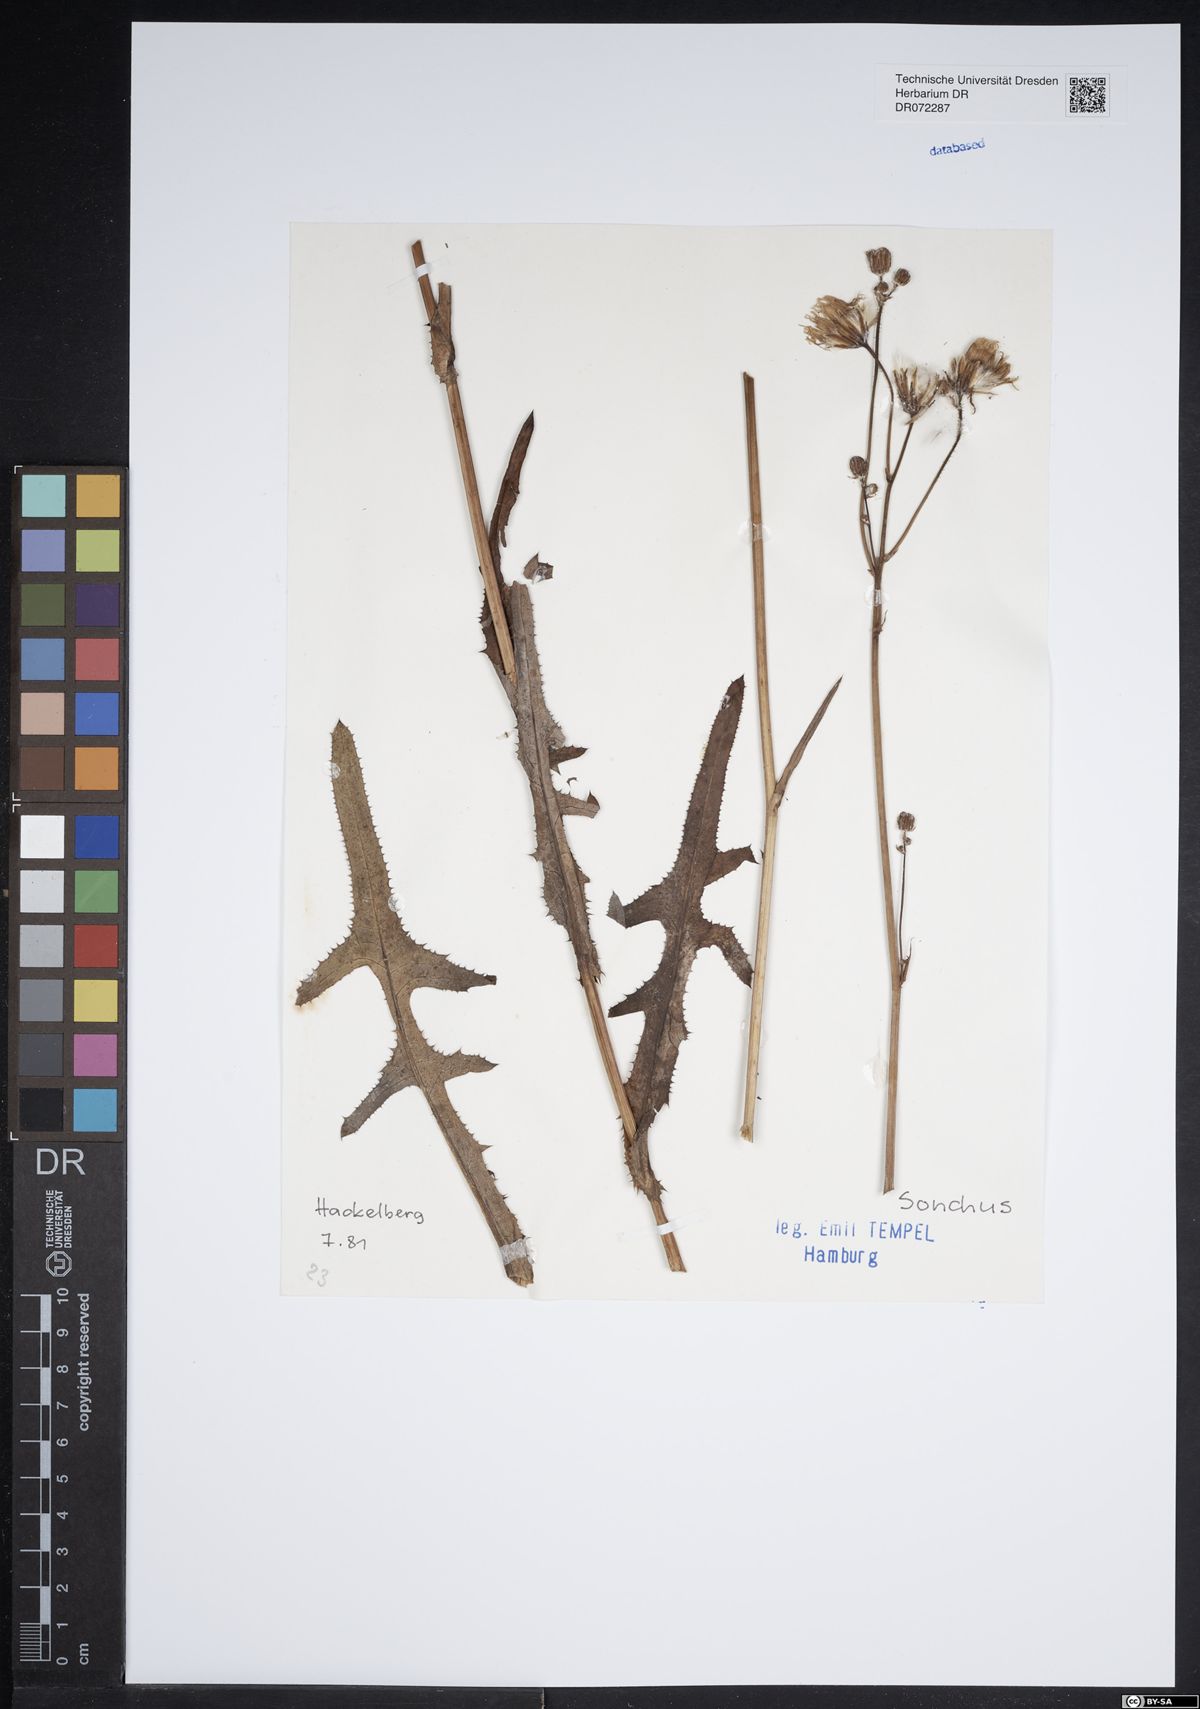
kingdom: Plantae
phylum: Tracheophyta
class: Magnoliopsida
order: Asterales
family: Asteraceae
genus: Sonchus
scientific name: Sonchus
